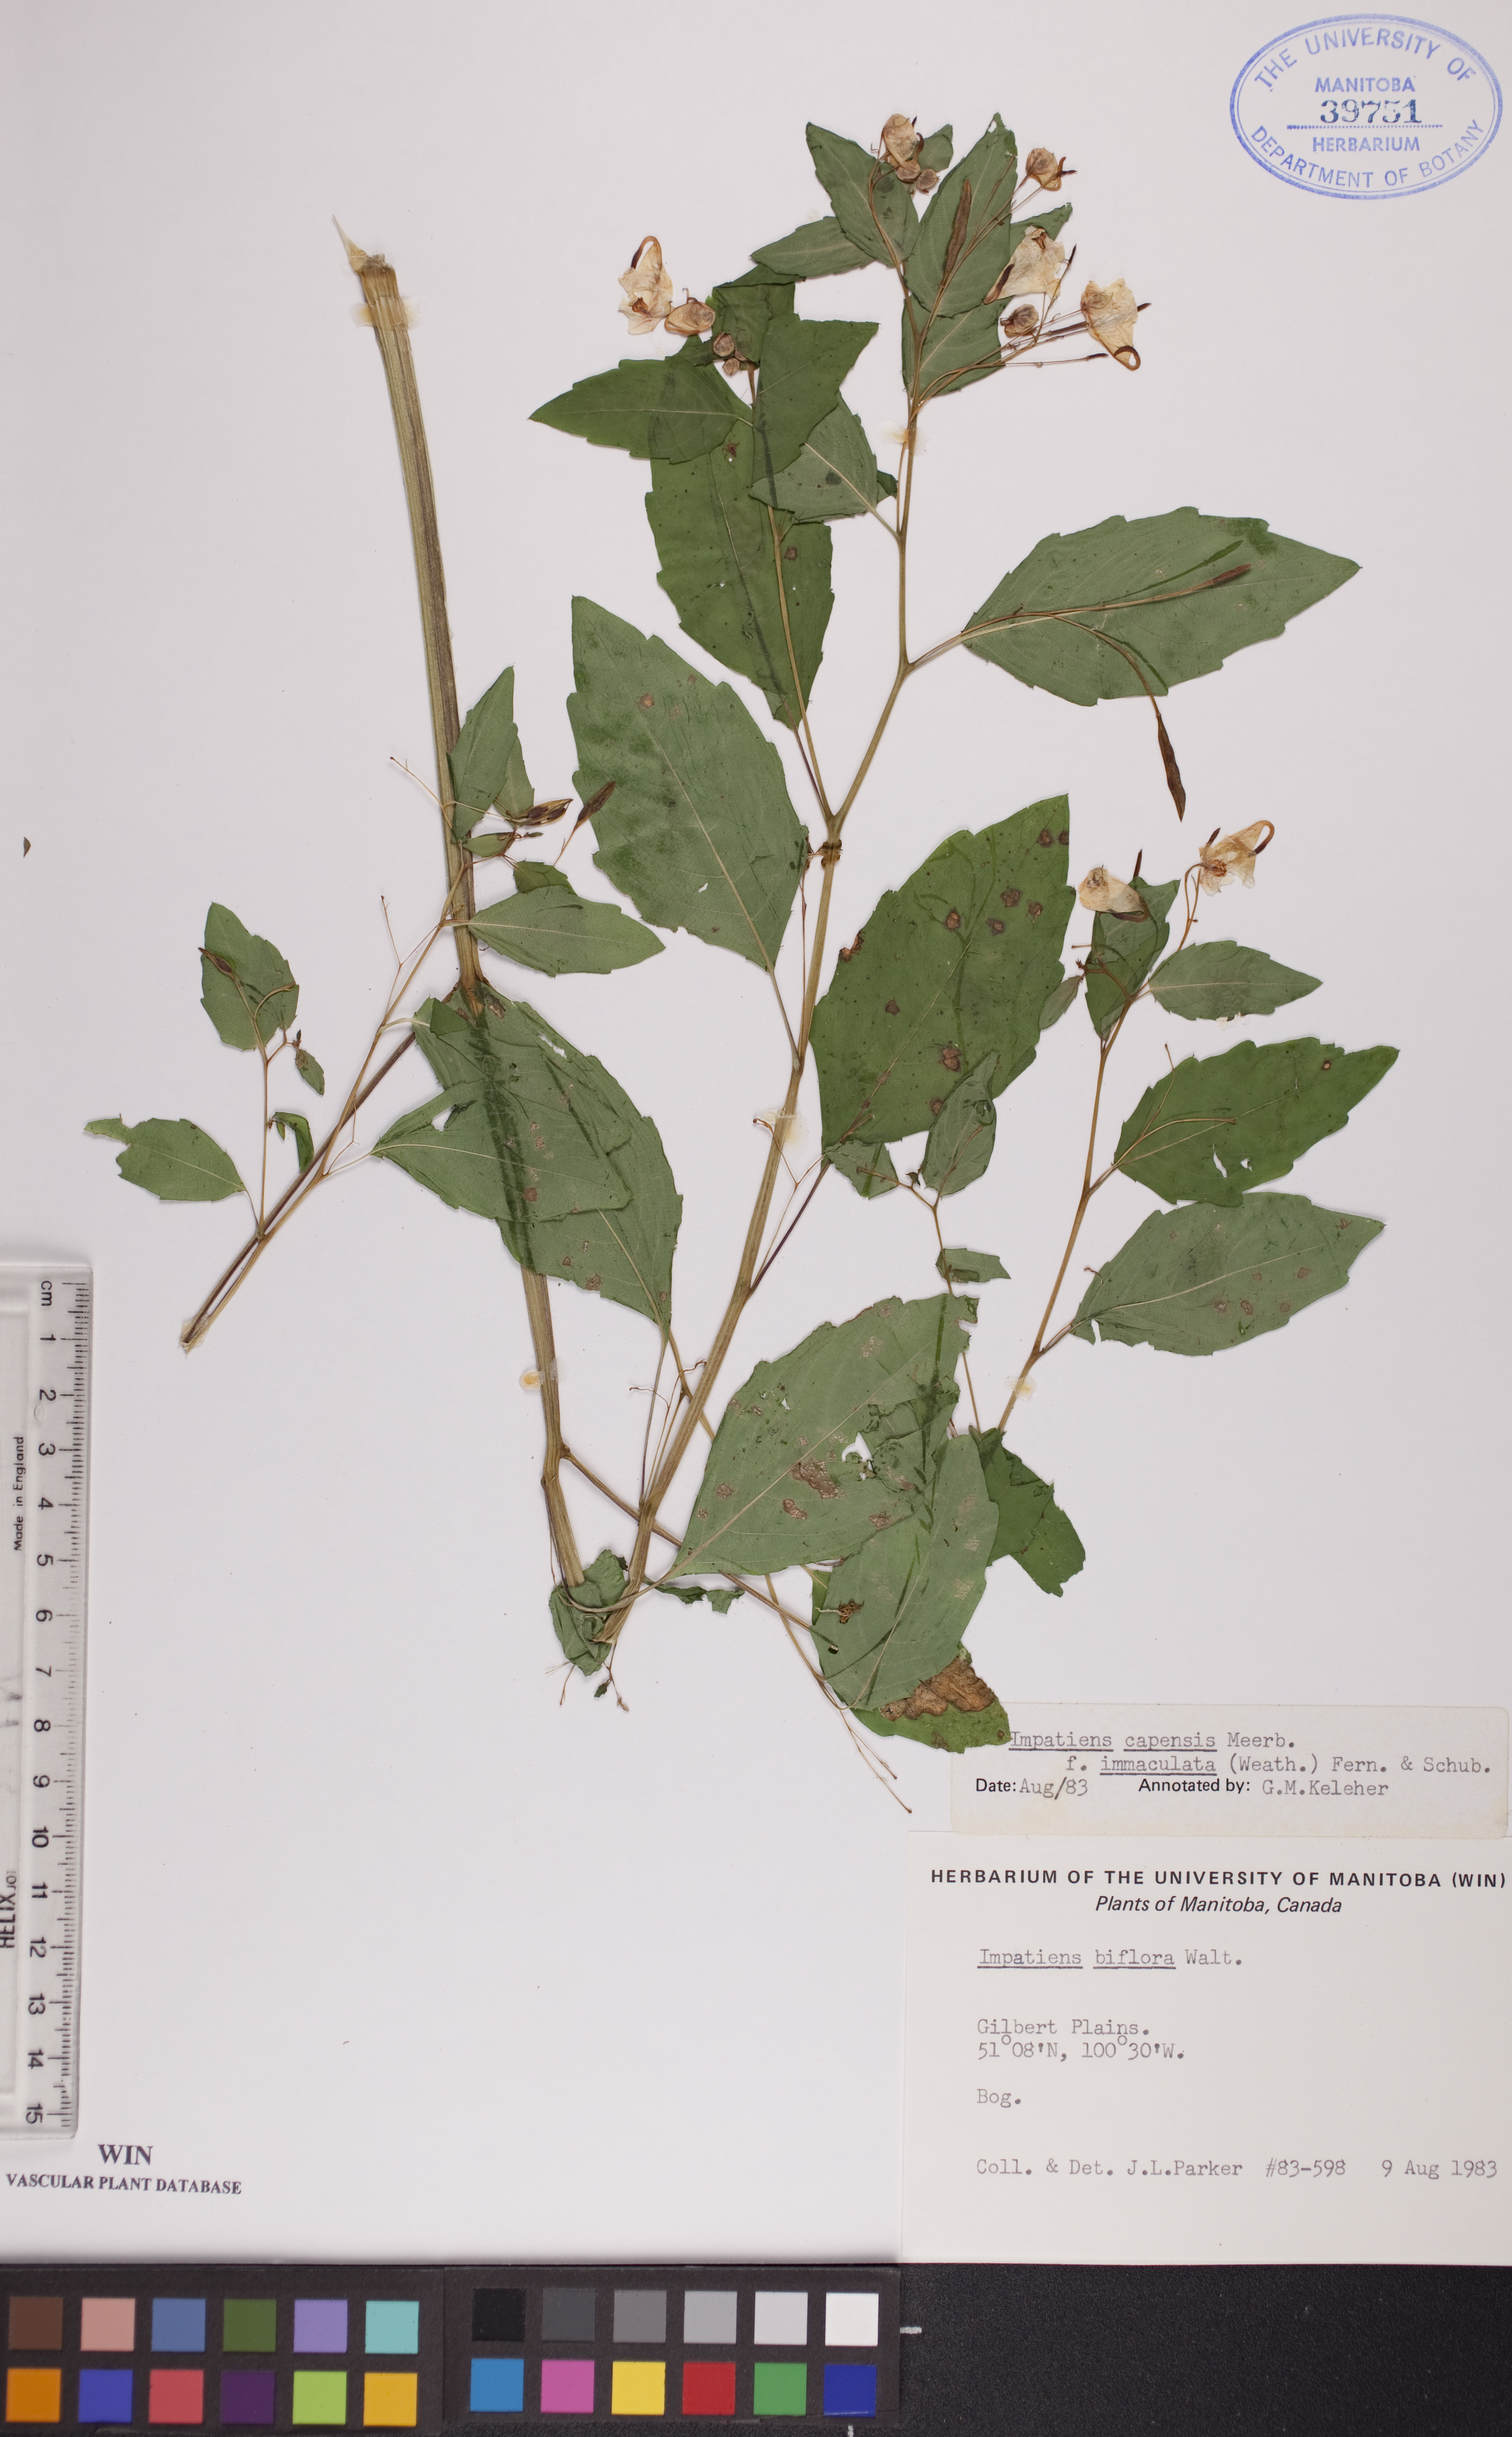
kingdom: Plantae
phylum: Tracheophyta
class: Magnoliopsida
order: Ericales
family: Balsaminaceae
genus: Impatiens
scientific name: Impatiens capensis
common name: Orange balsam
